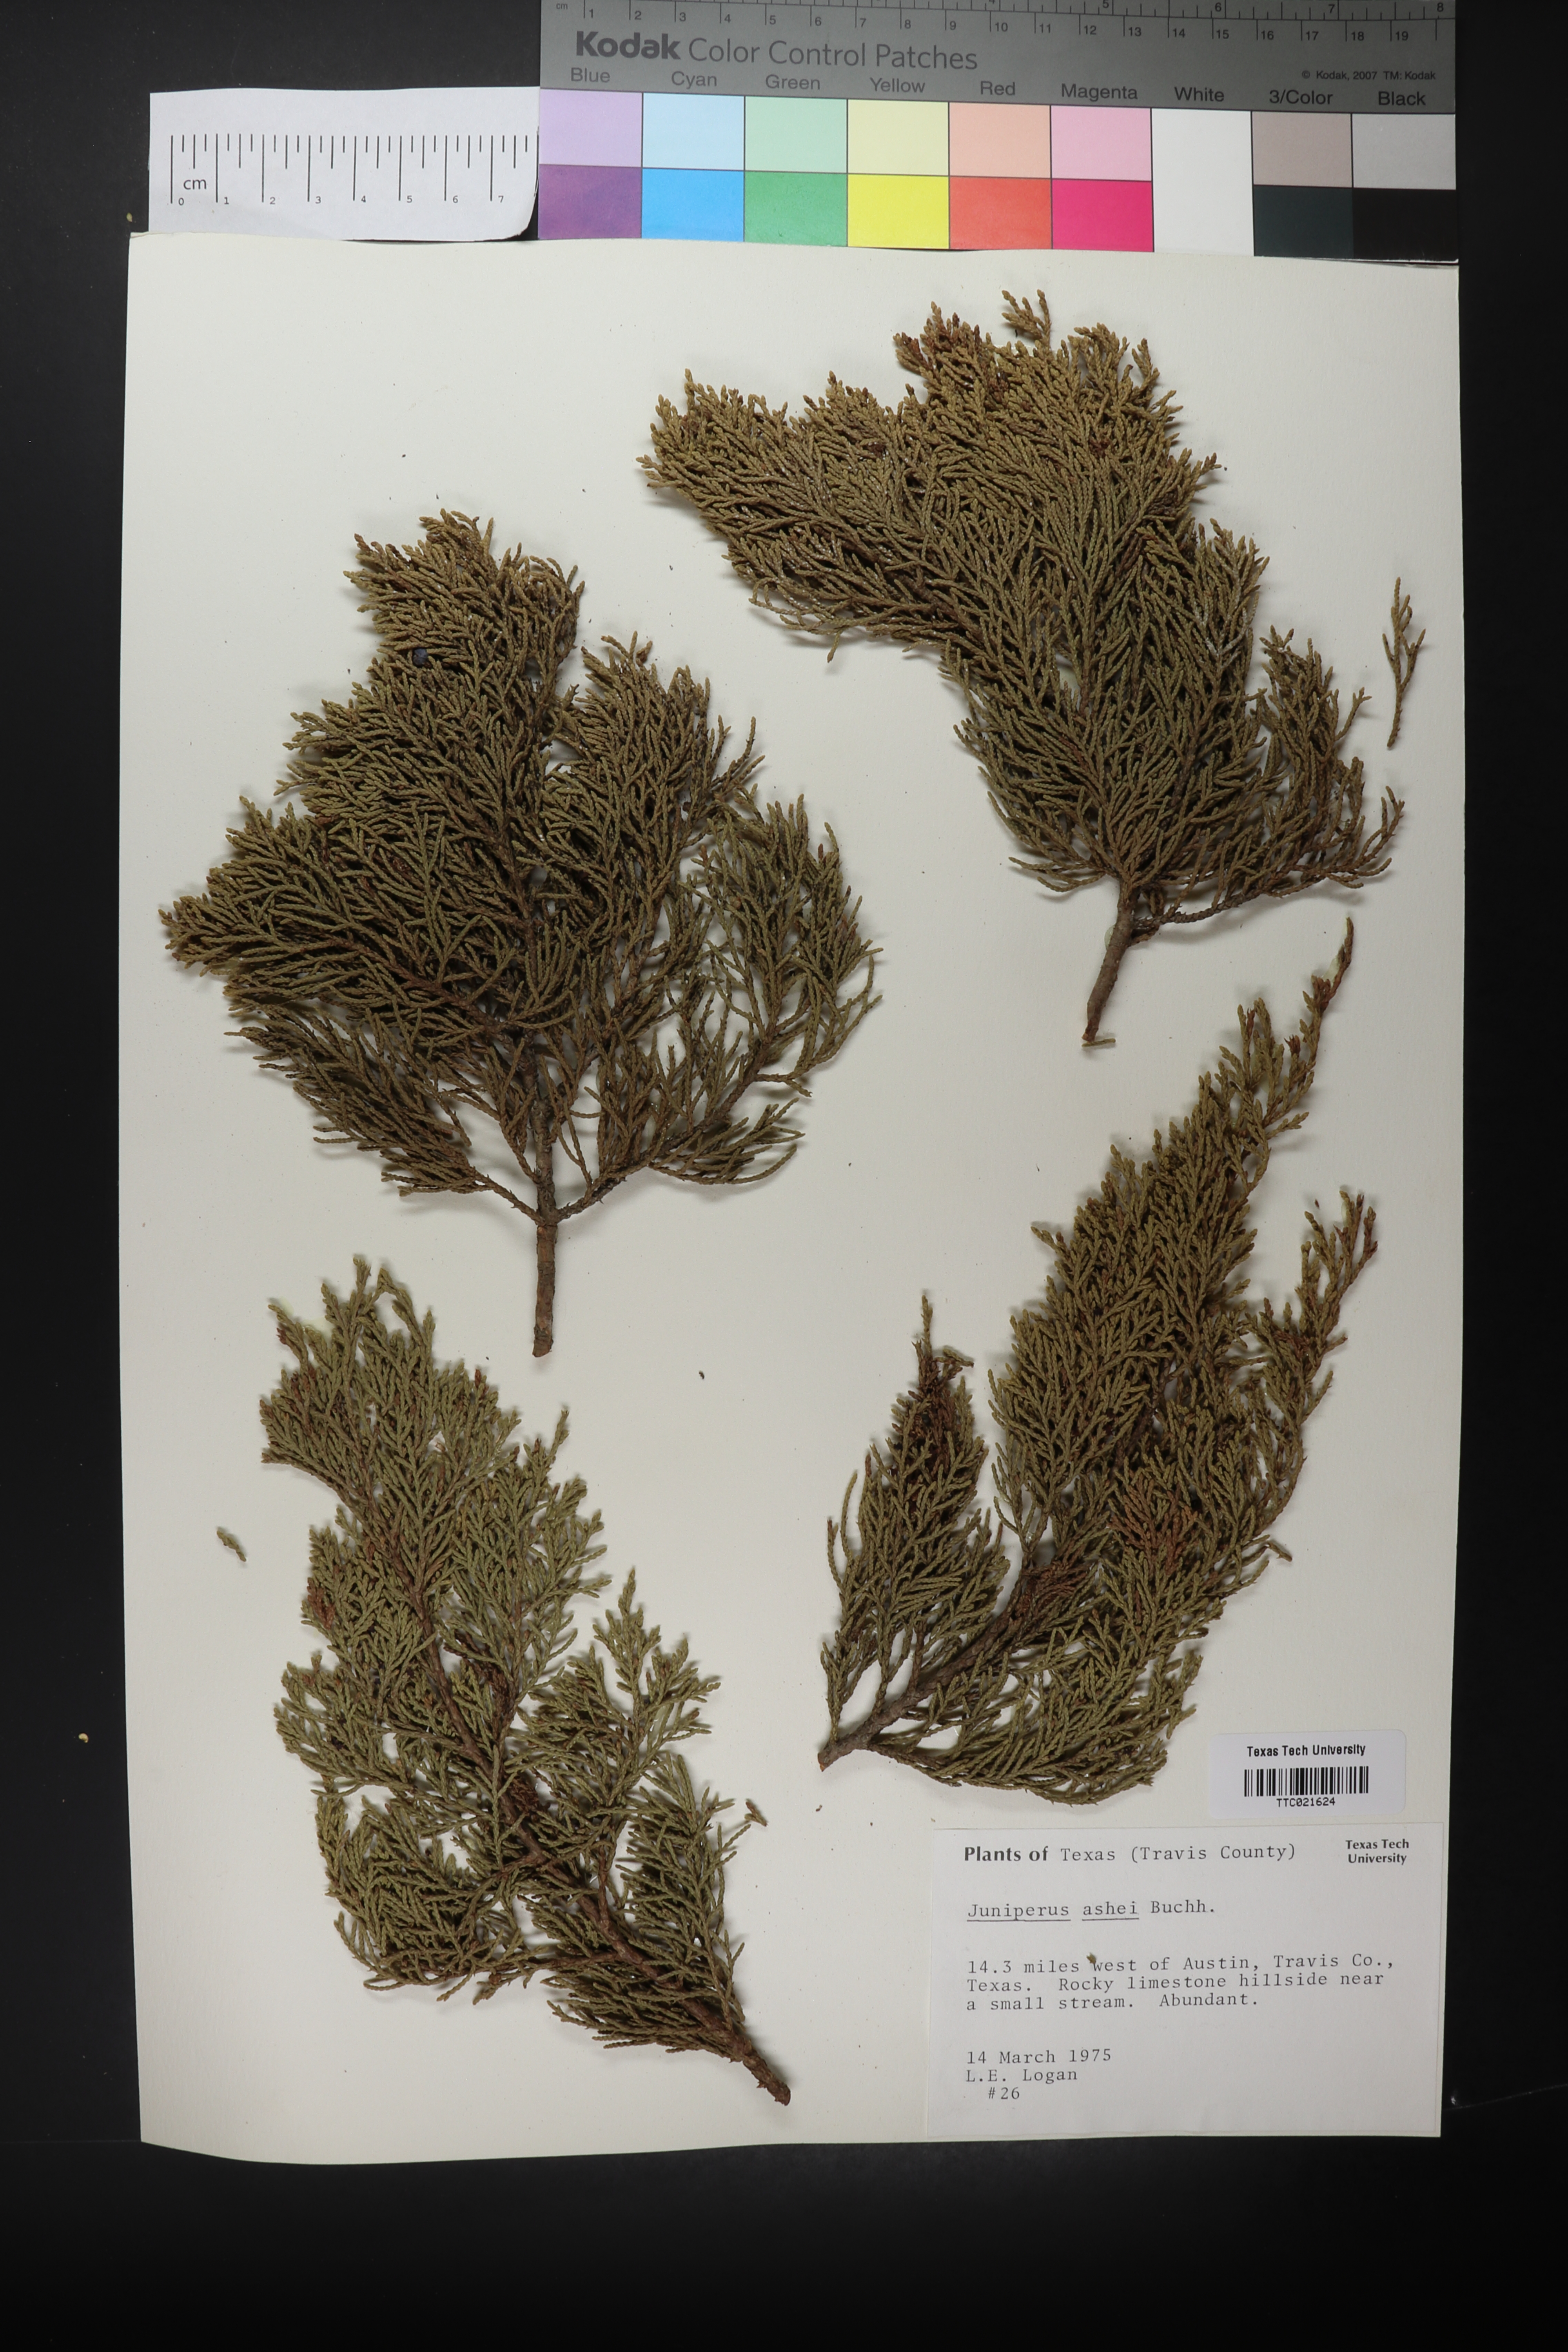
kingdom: Plantae
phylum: Tracheophyta
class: Pinopsida
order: Pinales
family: Cupressaceae
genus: Juniperus
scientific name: Juniperus ashei
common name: Mexican juniper
